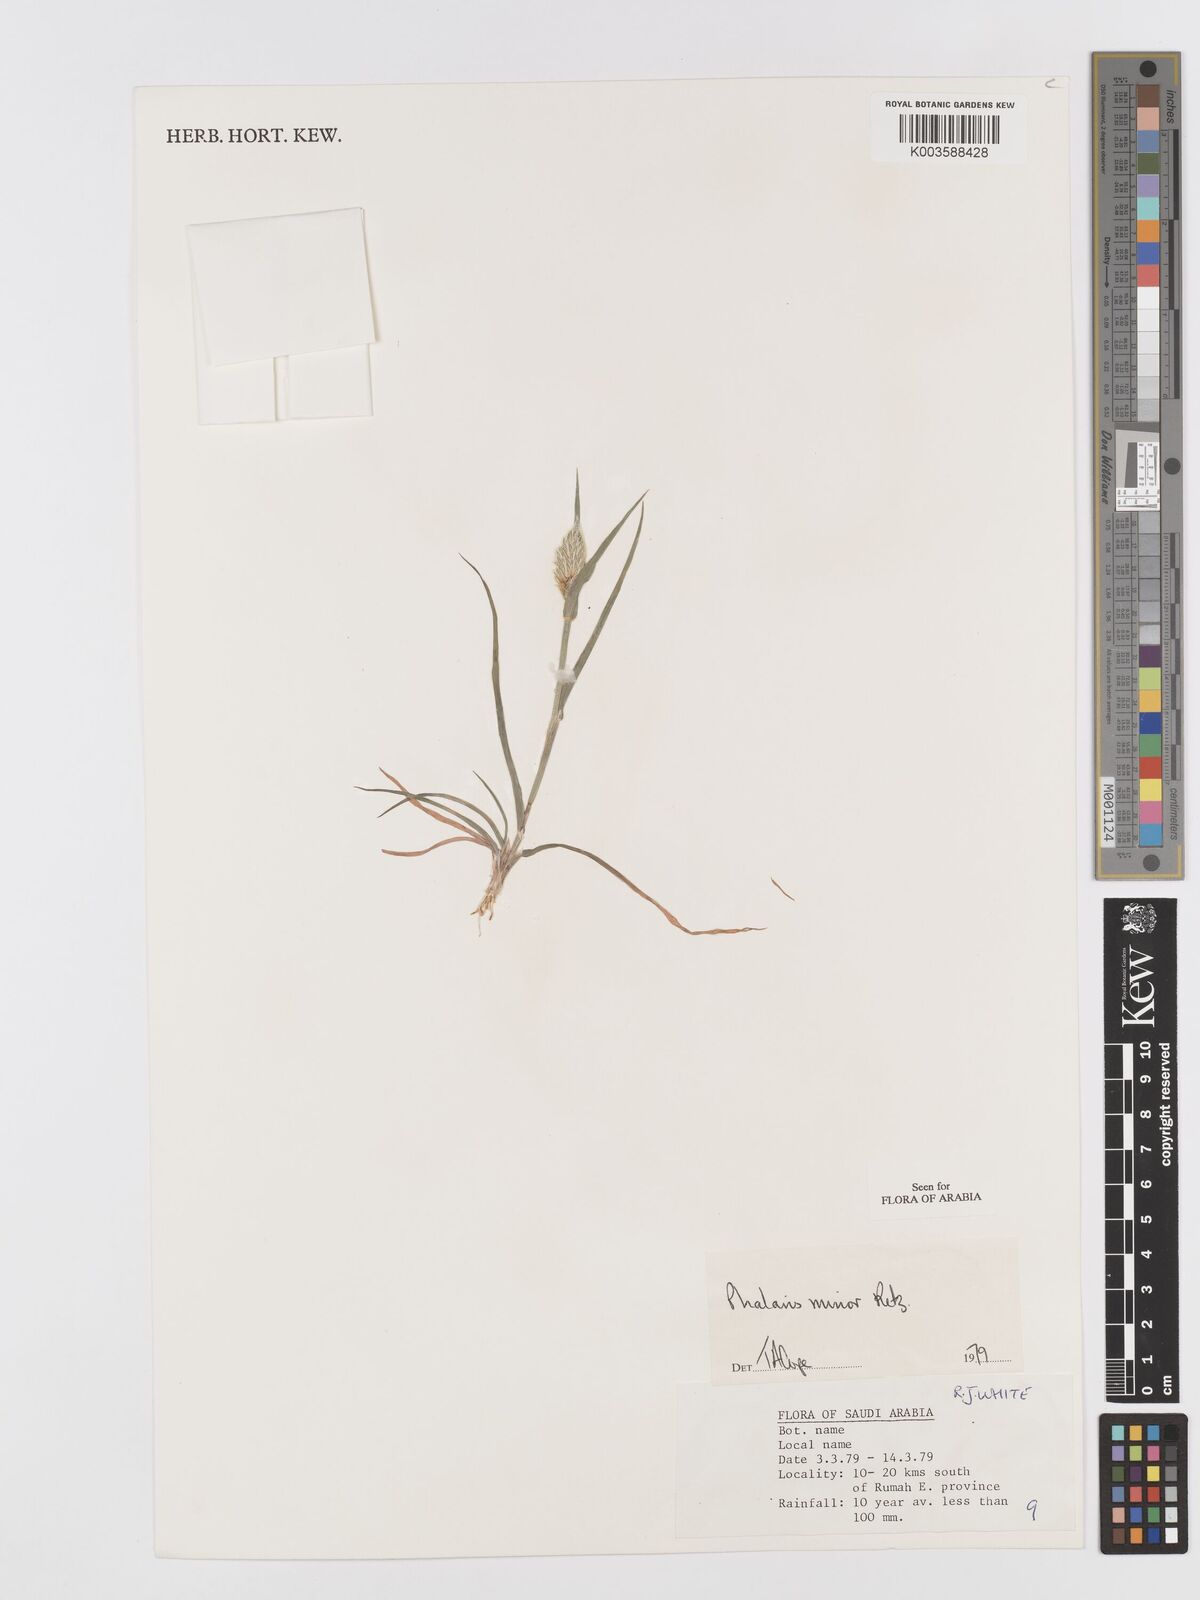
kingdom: Plantae
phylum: Tracheophyta
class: Liliopsida
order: Poales
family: Poaceae
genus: Phalaris
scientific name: Phalaris minor
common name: Littleseed canarygrass
